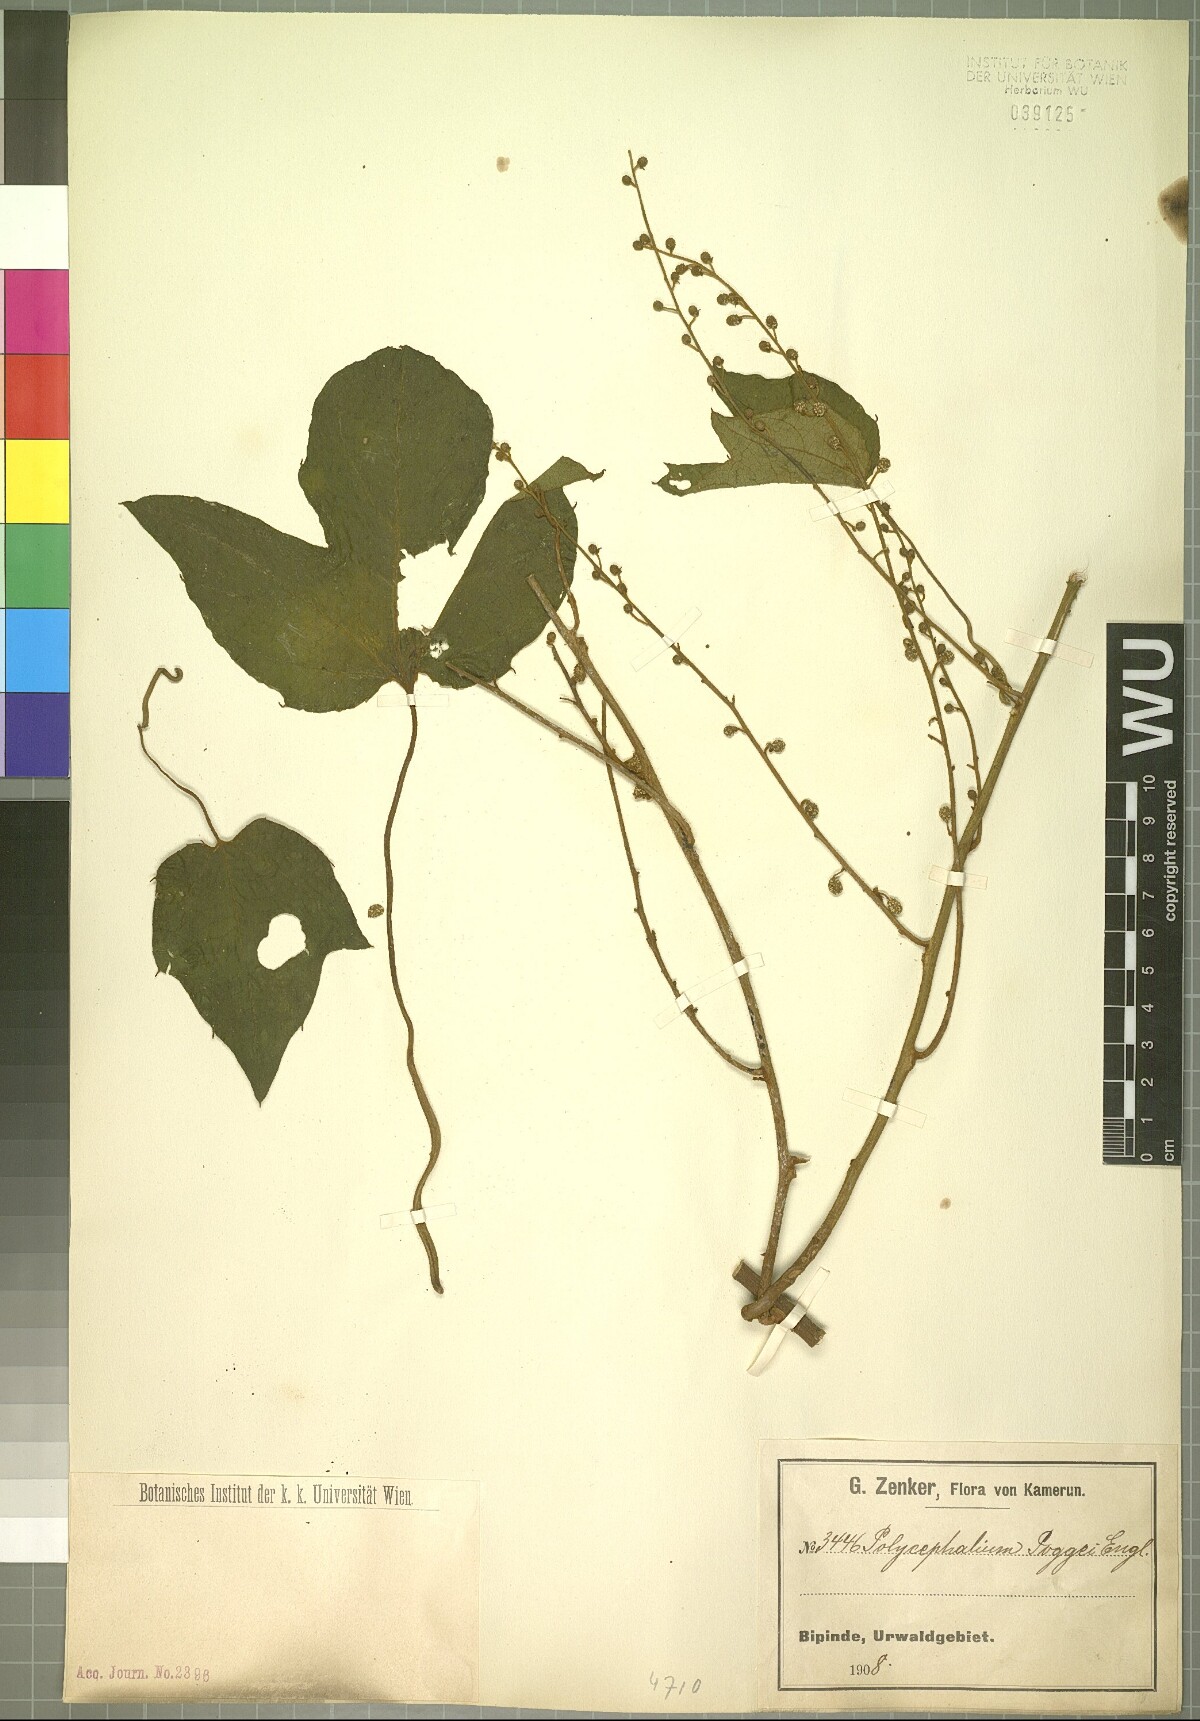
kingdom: Plantae
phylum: Tracheophyta
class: Magnoliopsida
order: Icacinales
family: Icacinaceae
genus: Pyrenacantha
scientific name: Pyrenacantha lobata
